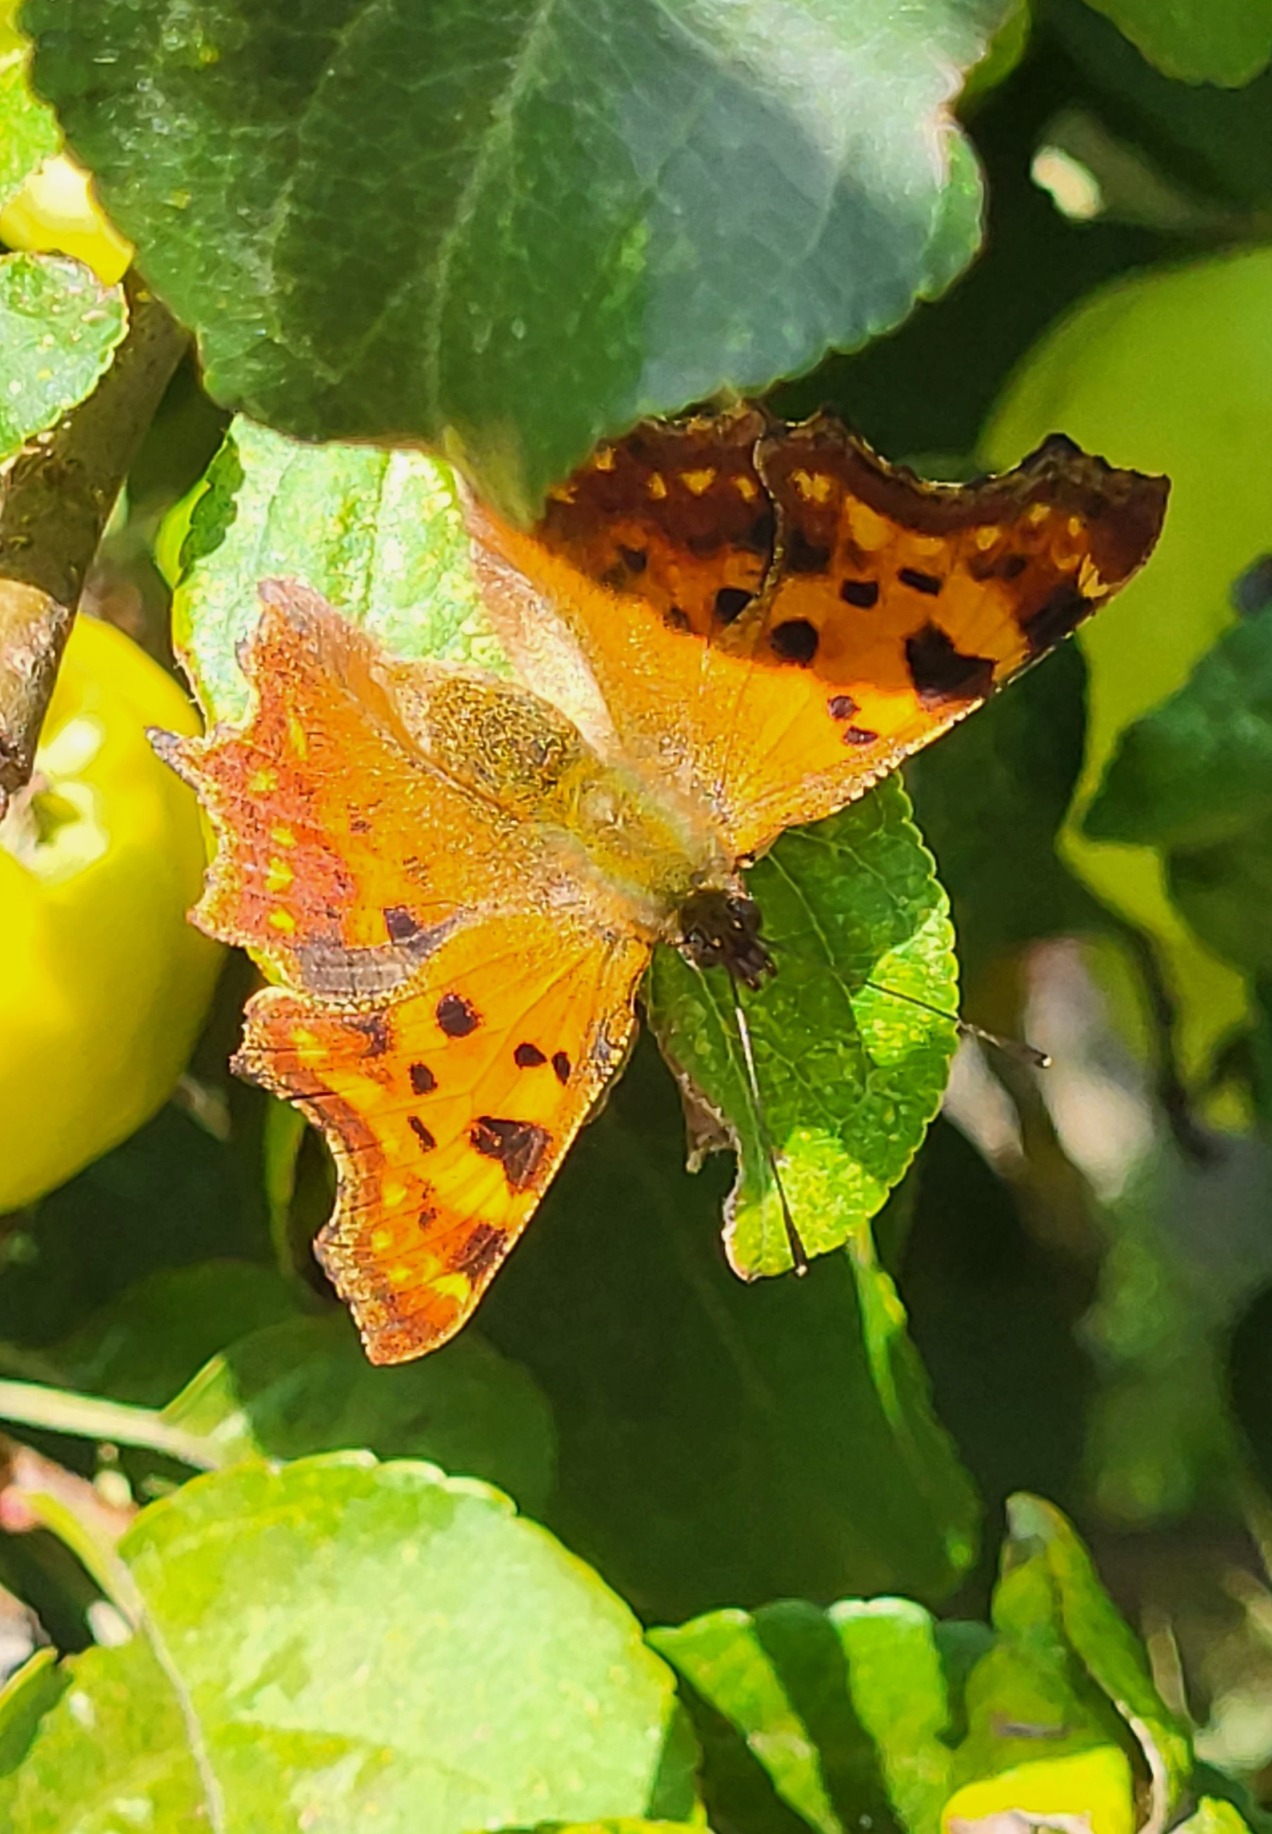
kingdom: Animalia
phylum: Arthropoda
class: Insecta
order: Lepidoptera
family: Nymphalidae
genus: Polygonia
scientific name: Polygonia c-album
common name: Det hvide C
